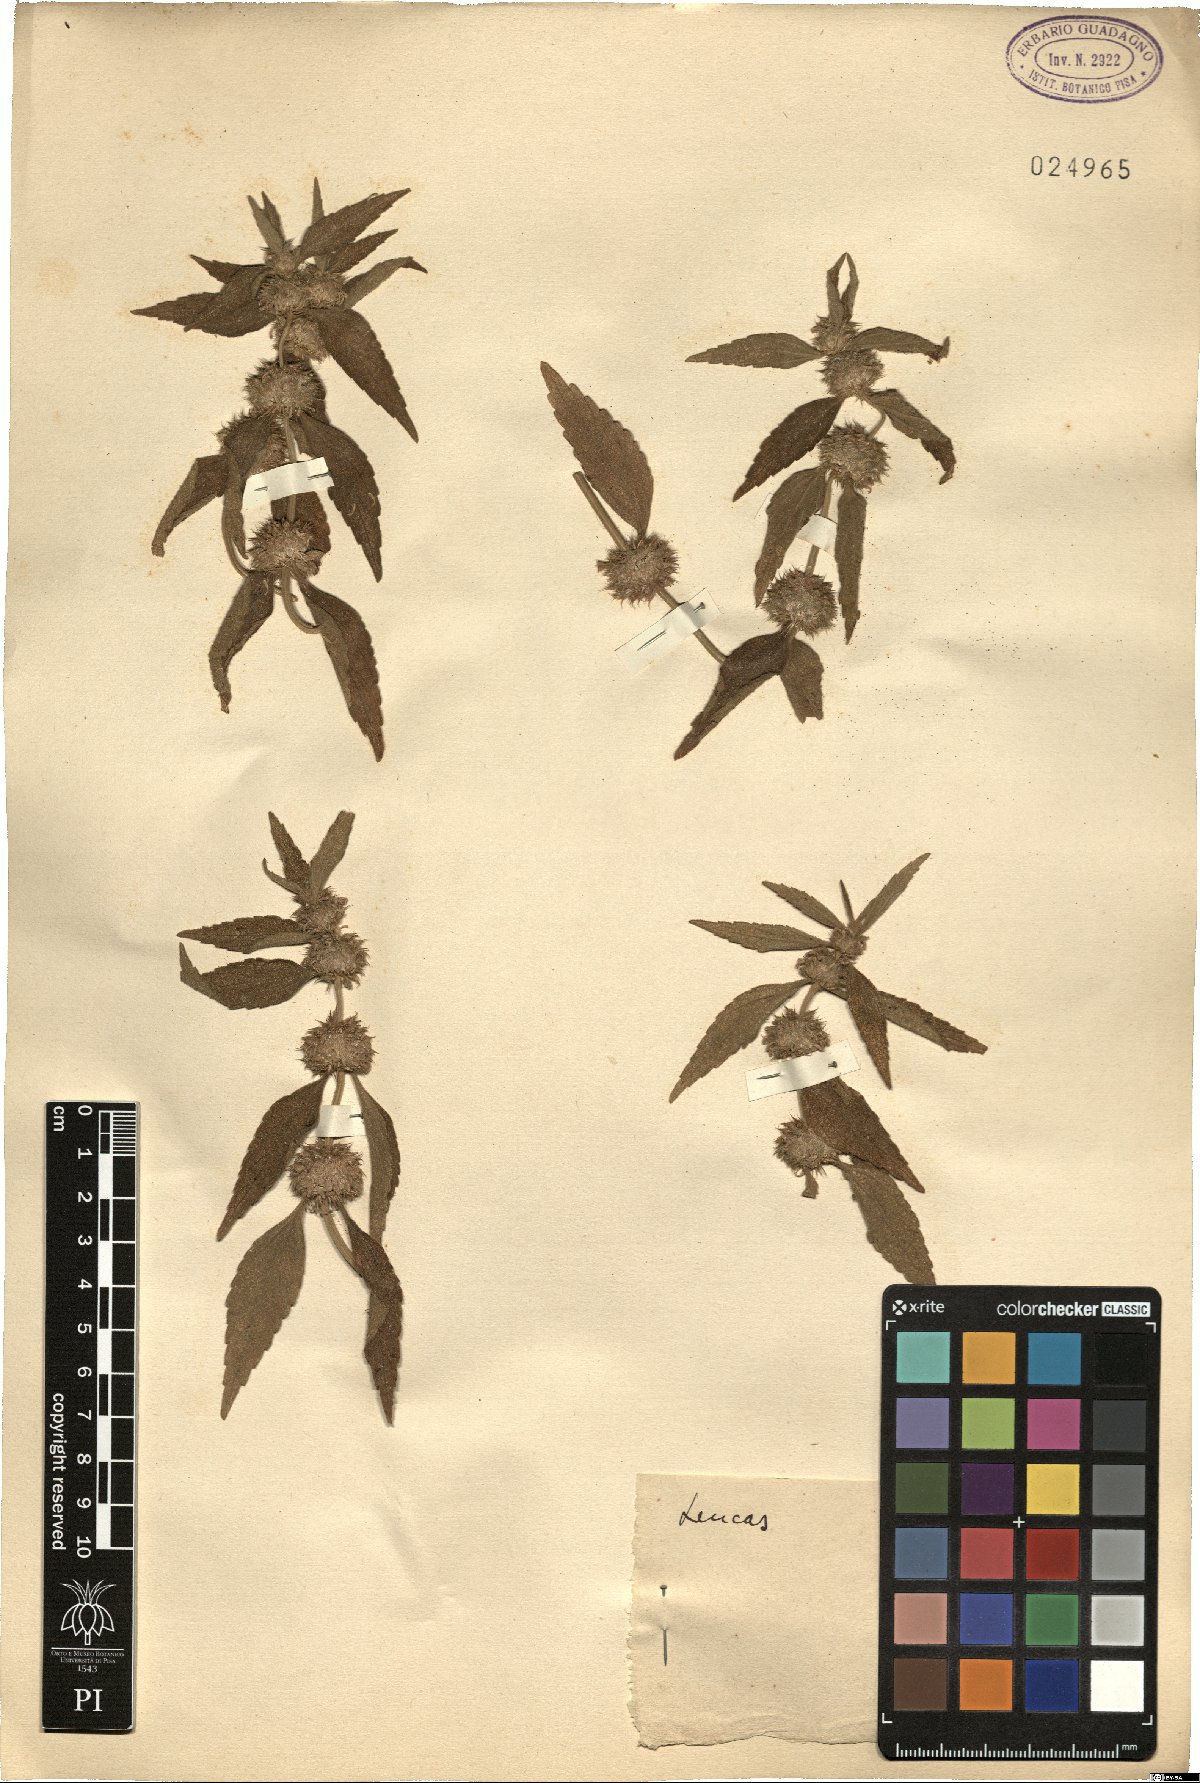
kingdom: Plantae
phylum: Tracheophyta
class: Magnoliopsida
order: Lamiales
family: Lamiaceae
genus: Leucas
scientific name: Leucas
